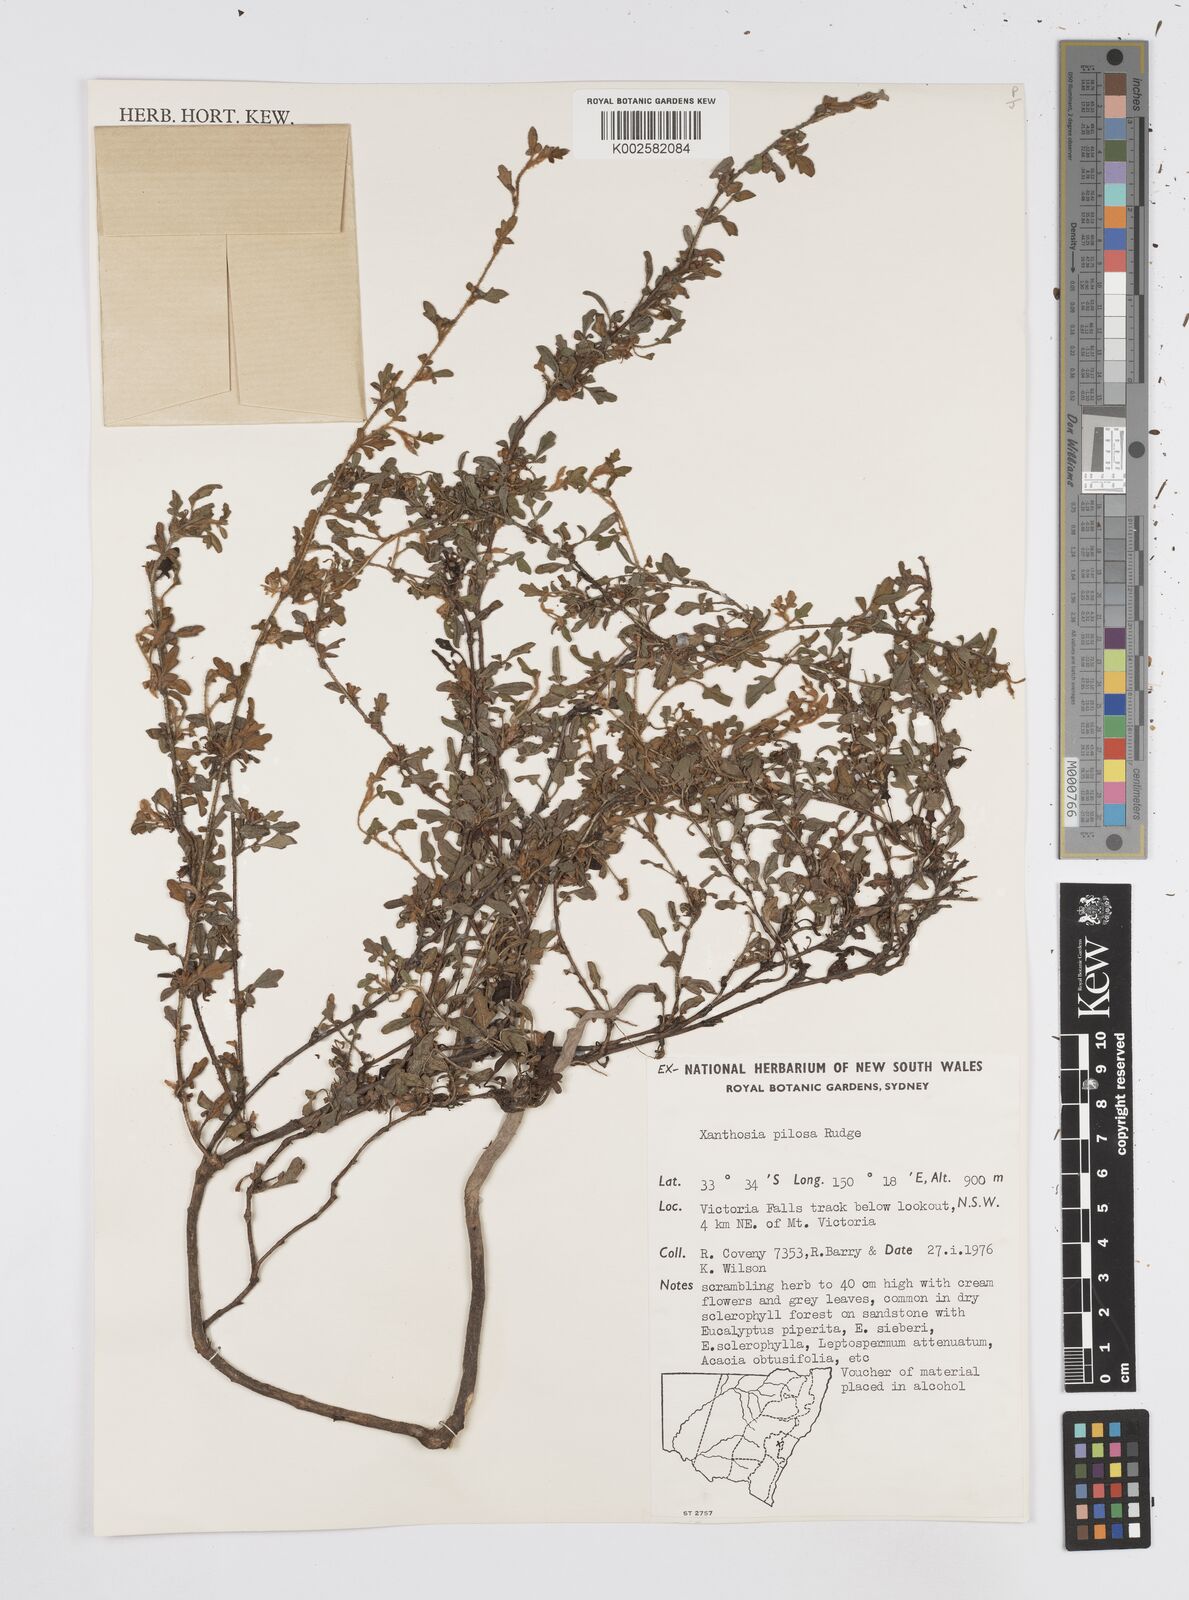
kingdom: Plantae
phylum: Tracheophyta
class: Magnoliopsida
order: Apiales
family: Apiaceae
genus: Xanthosia
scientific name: Xanthosia pilosa
